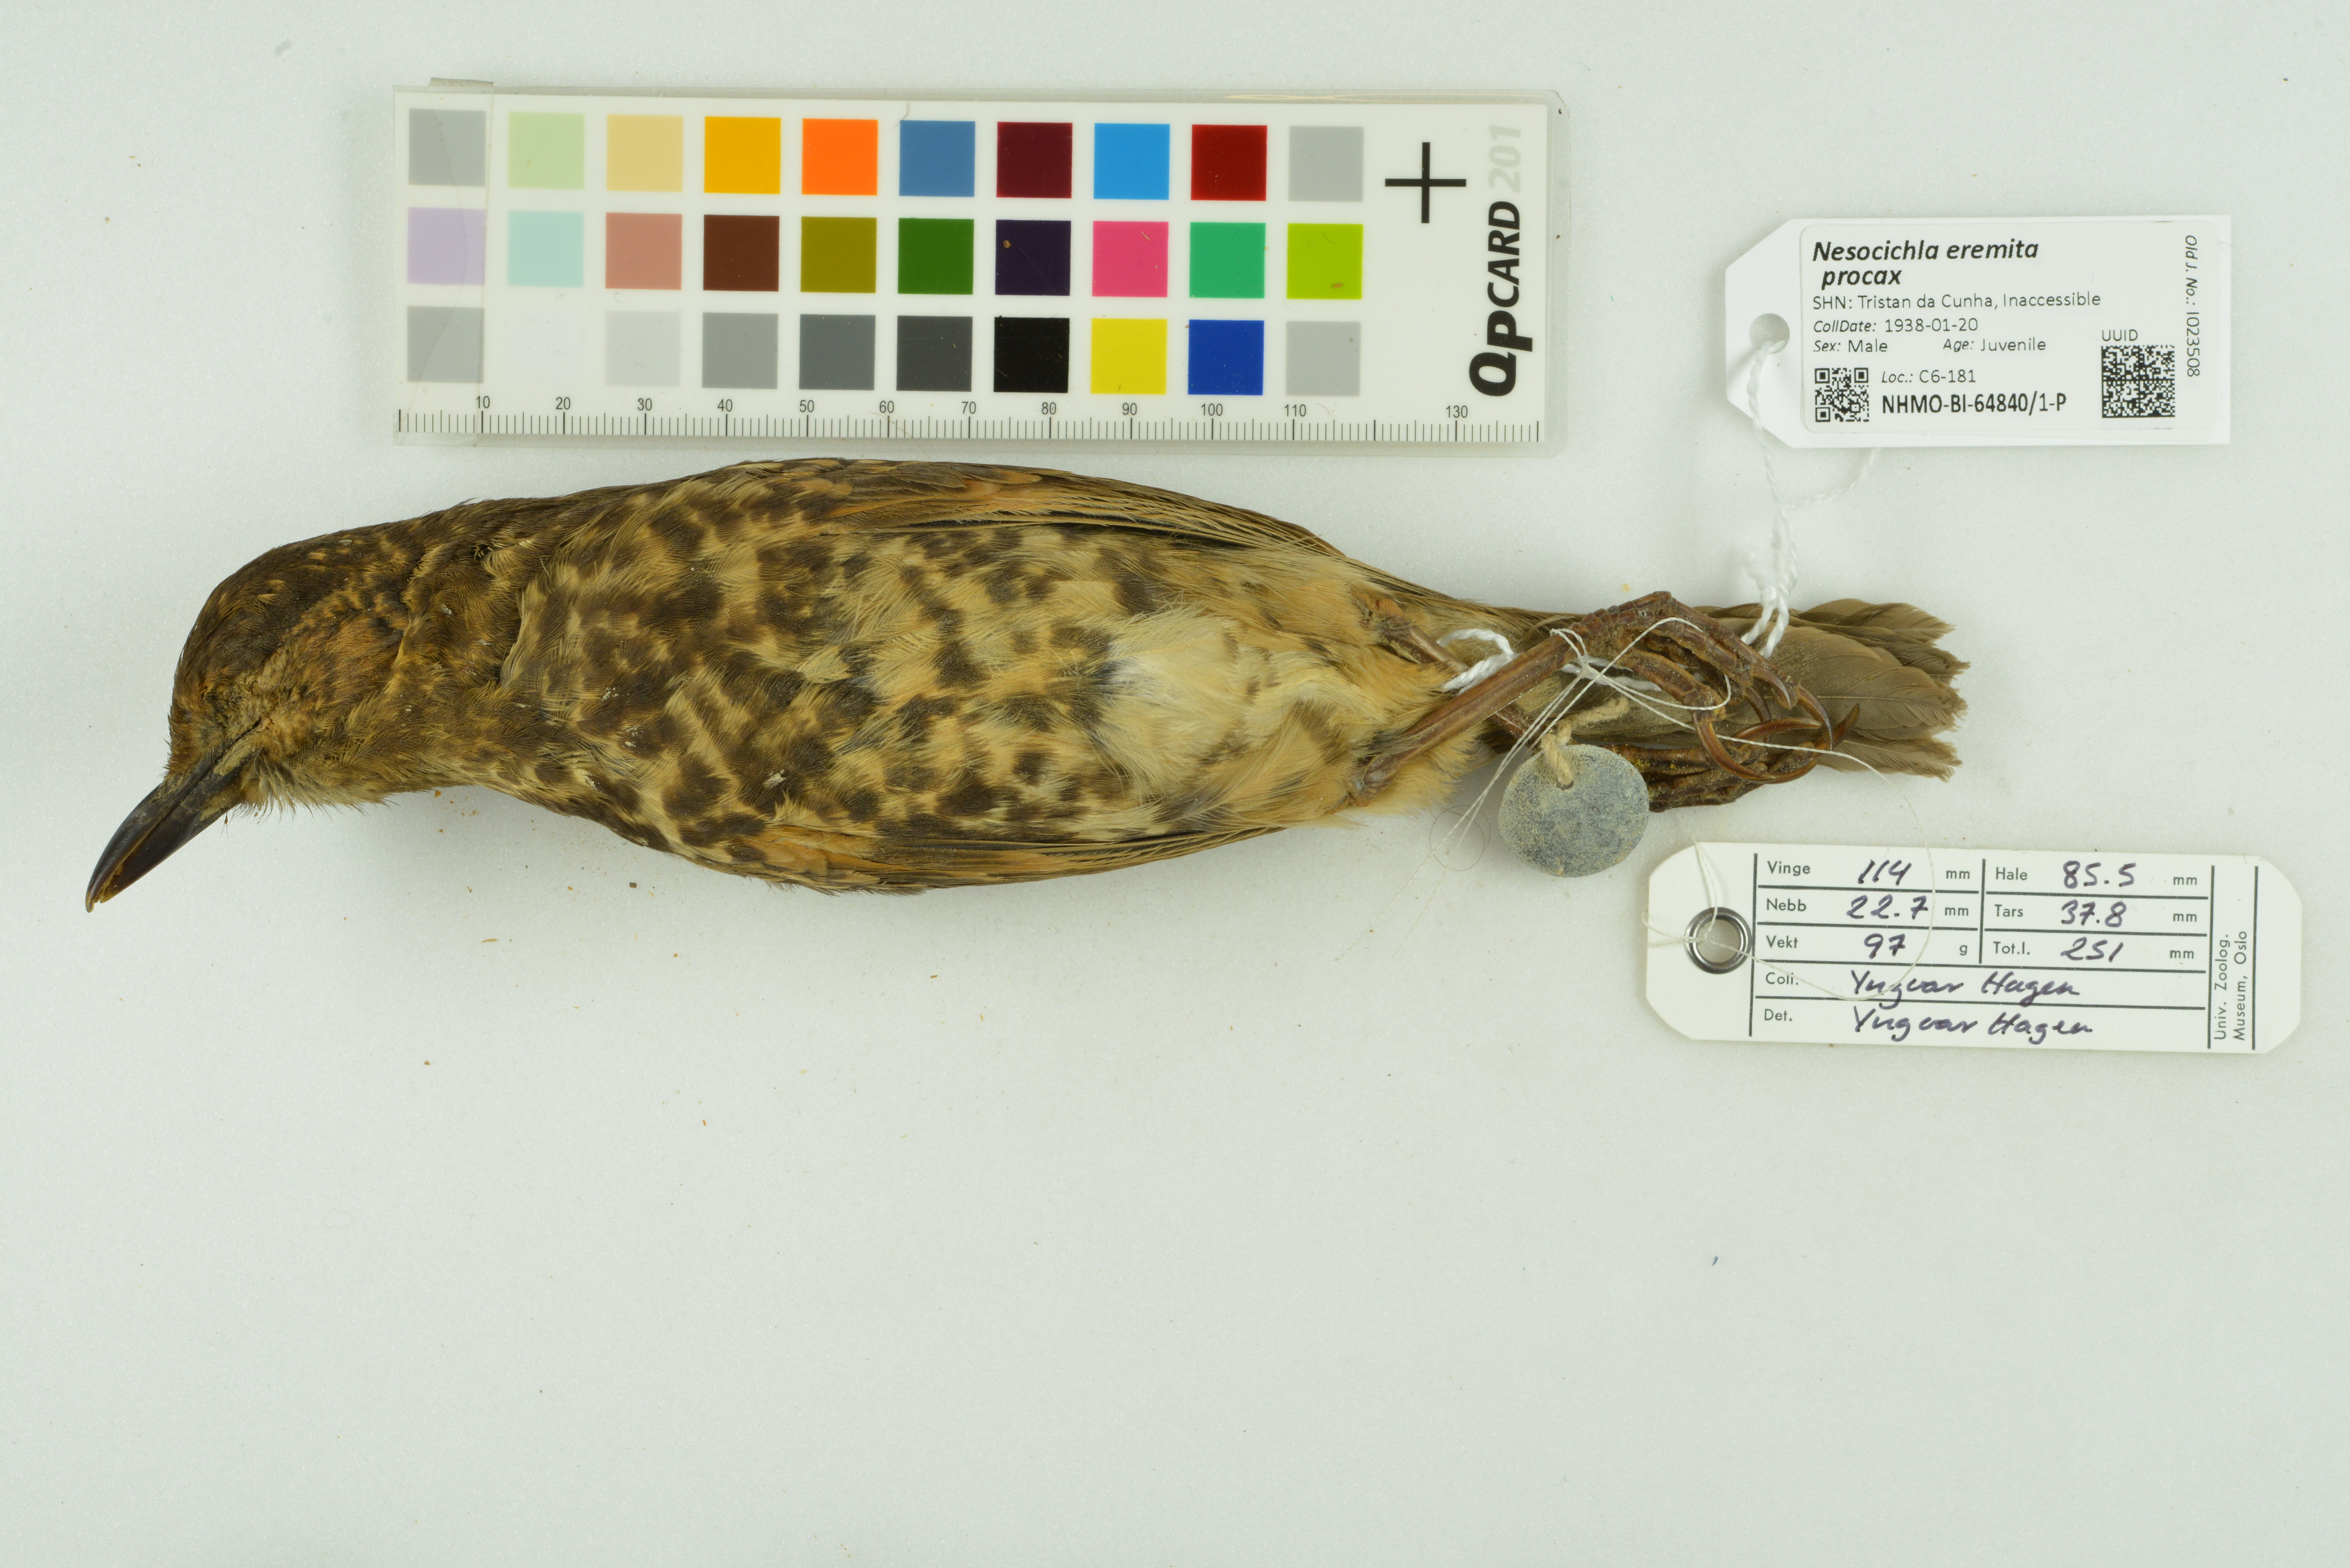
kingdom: Animalia
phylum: Chordata
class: Aves
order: Passeriformes
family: Turdidae
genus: Nesocichla
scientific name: Nesocichla eremita
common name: Tristan thrush
